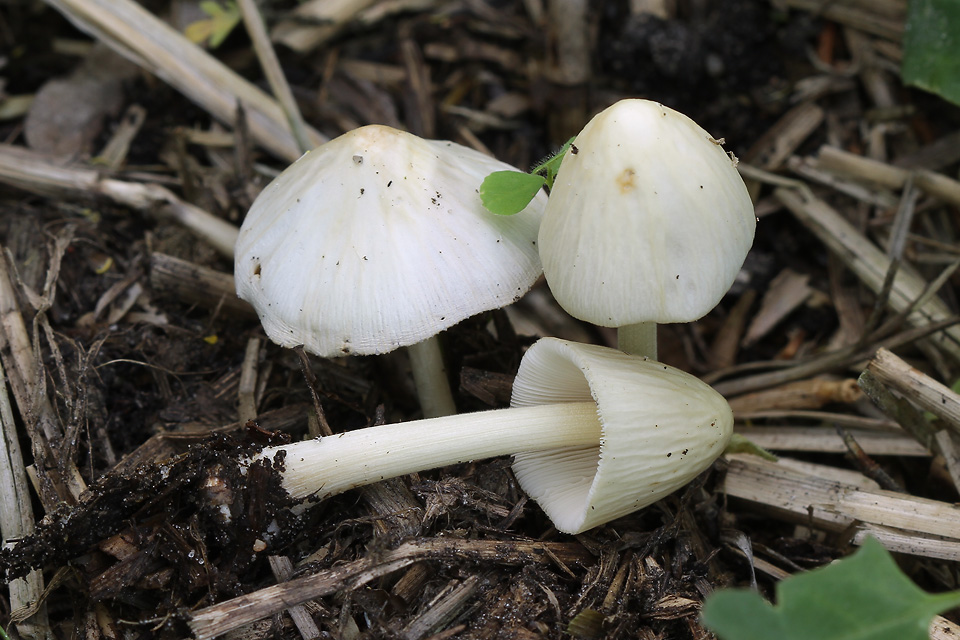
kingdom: Fungi
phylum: Basidiomycota
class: Agaricomycetes
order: Agaricales
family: Bolbitiaceae
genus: Conocybe
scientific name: Conocybe apala
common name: Milky conecap
